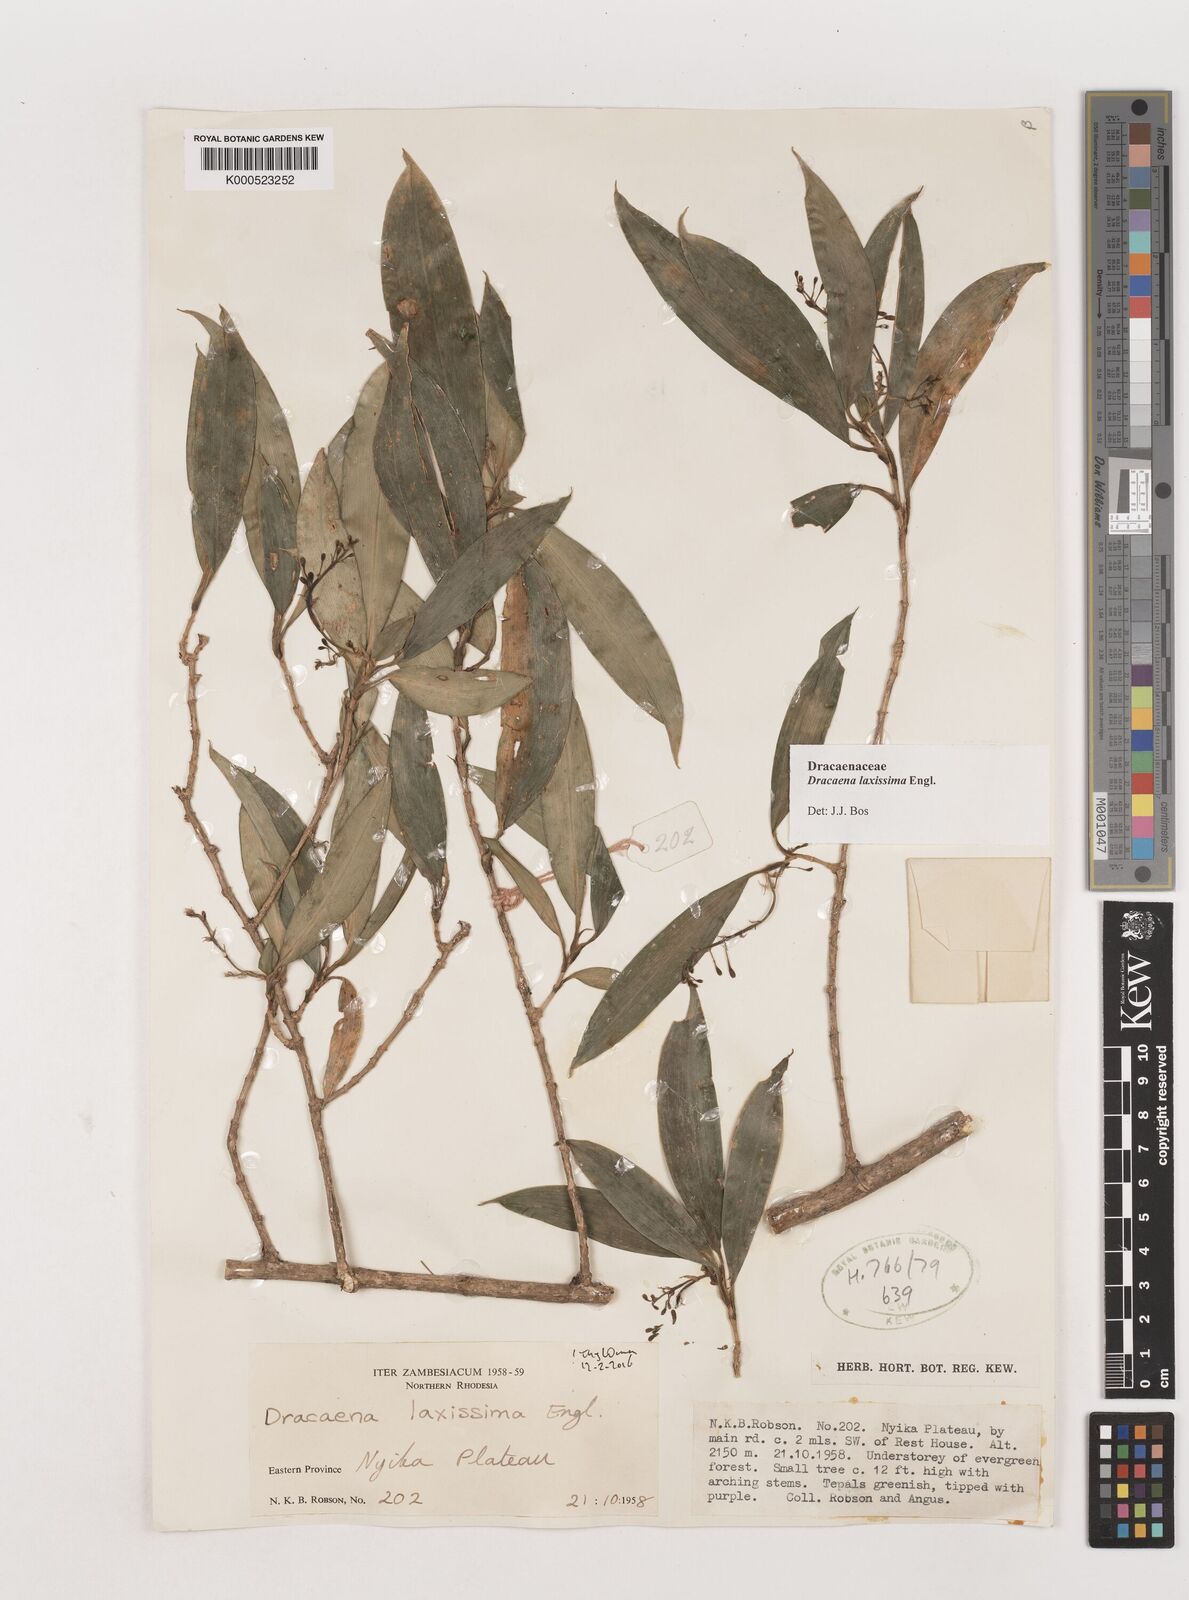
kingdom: Plantae
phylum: Tracheophyta
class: Liliopsida
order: Asparagales
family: Asparagaceae
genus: Dracaena
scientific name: Dracaena laxissima
